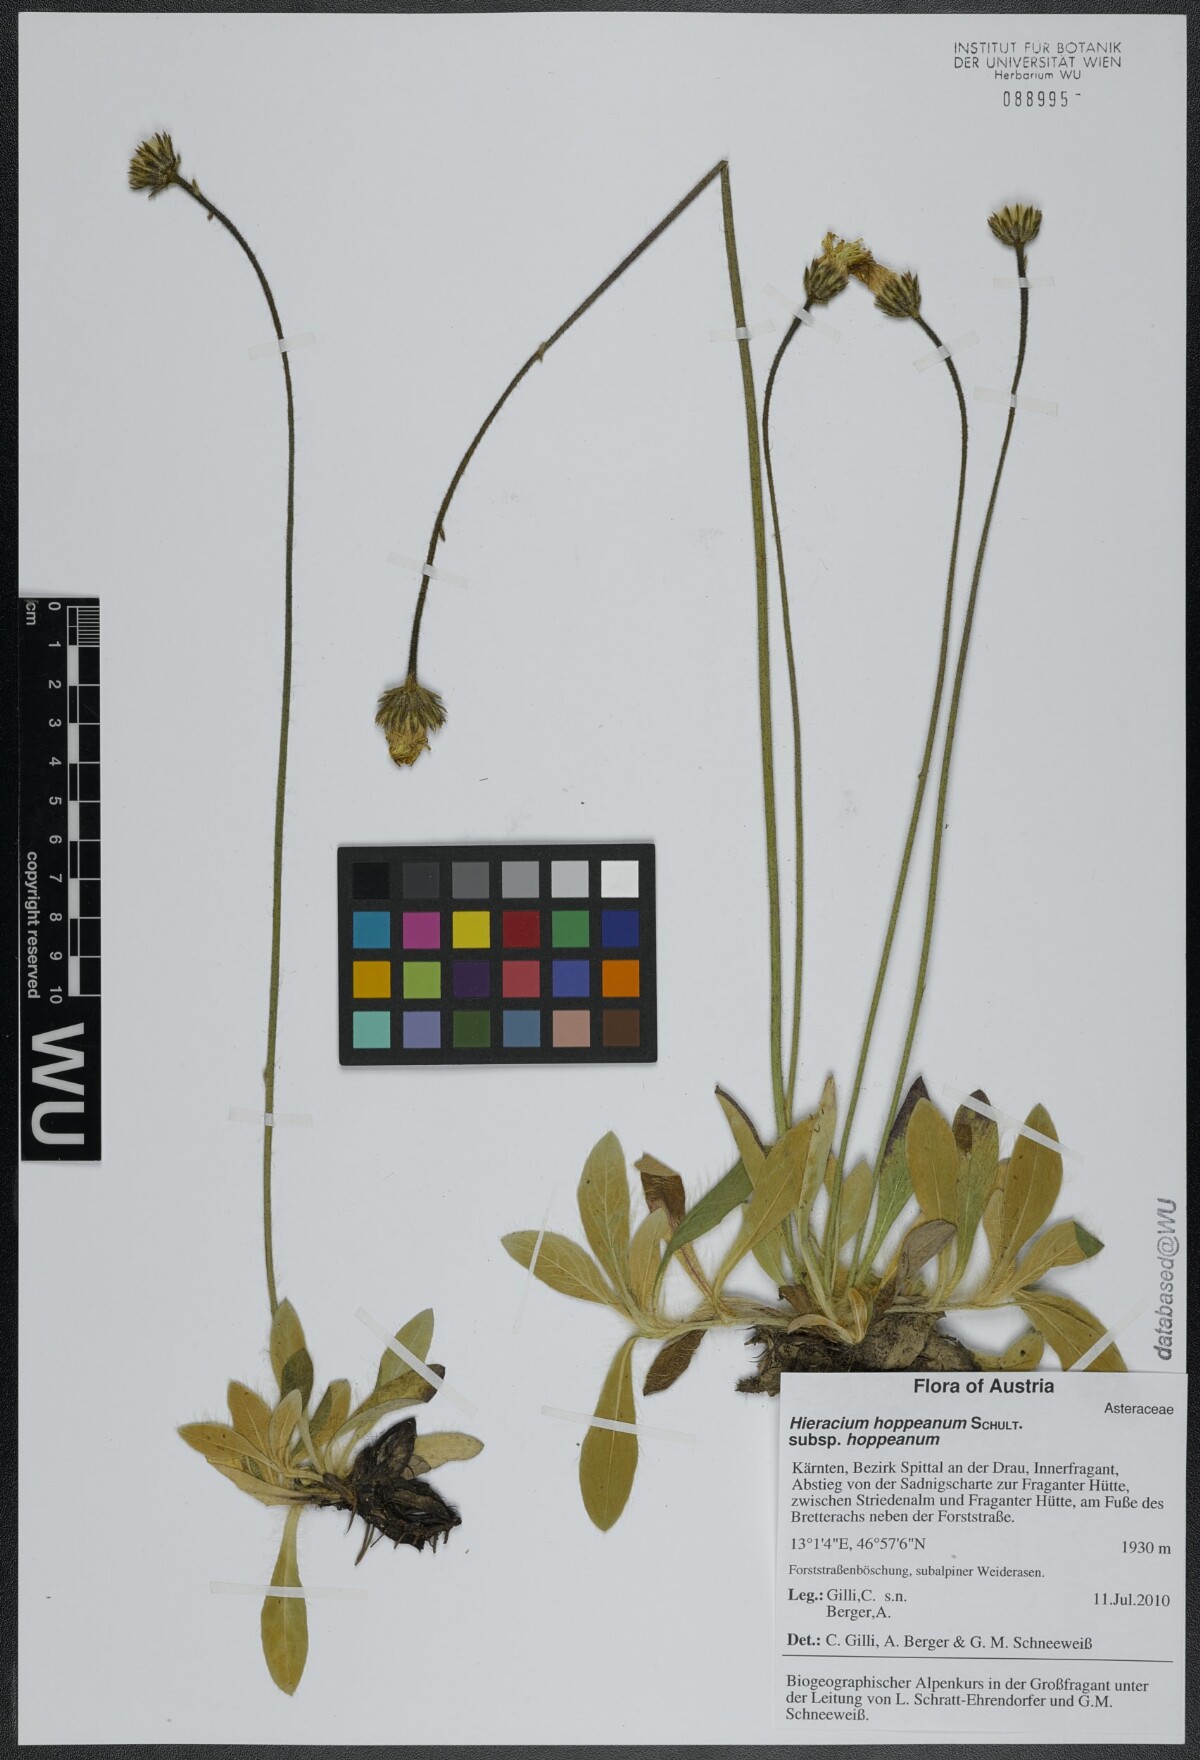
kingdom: Plantae
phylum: Tracheophyta
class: Magnoliopsida
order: Asterales
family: Asteraceae
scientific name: Asteraceae
